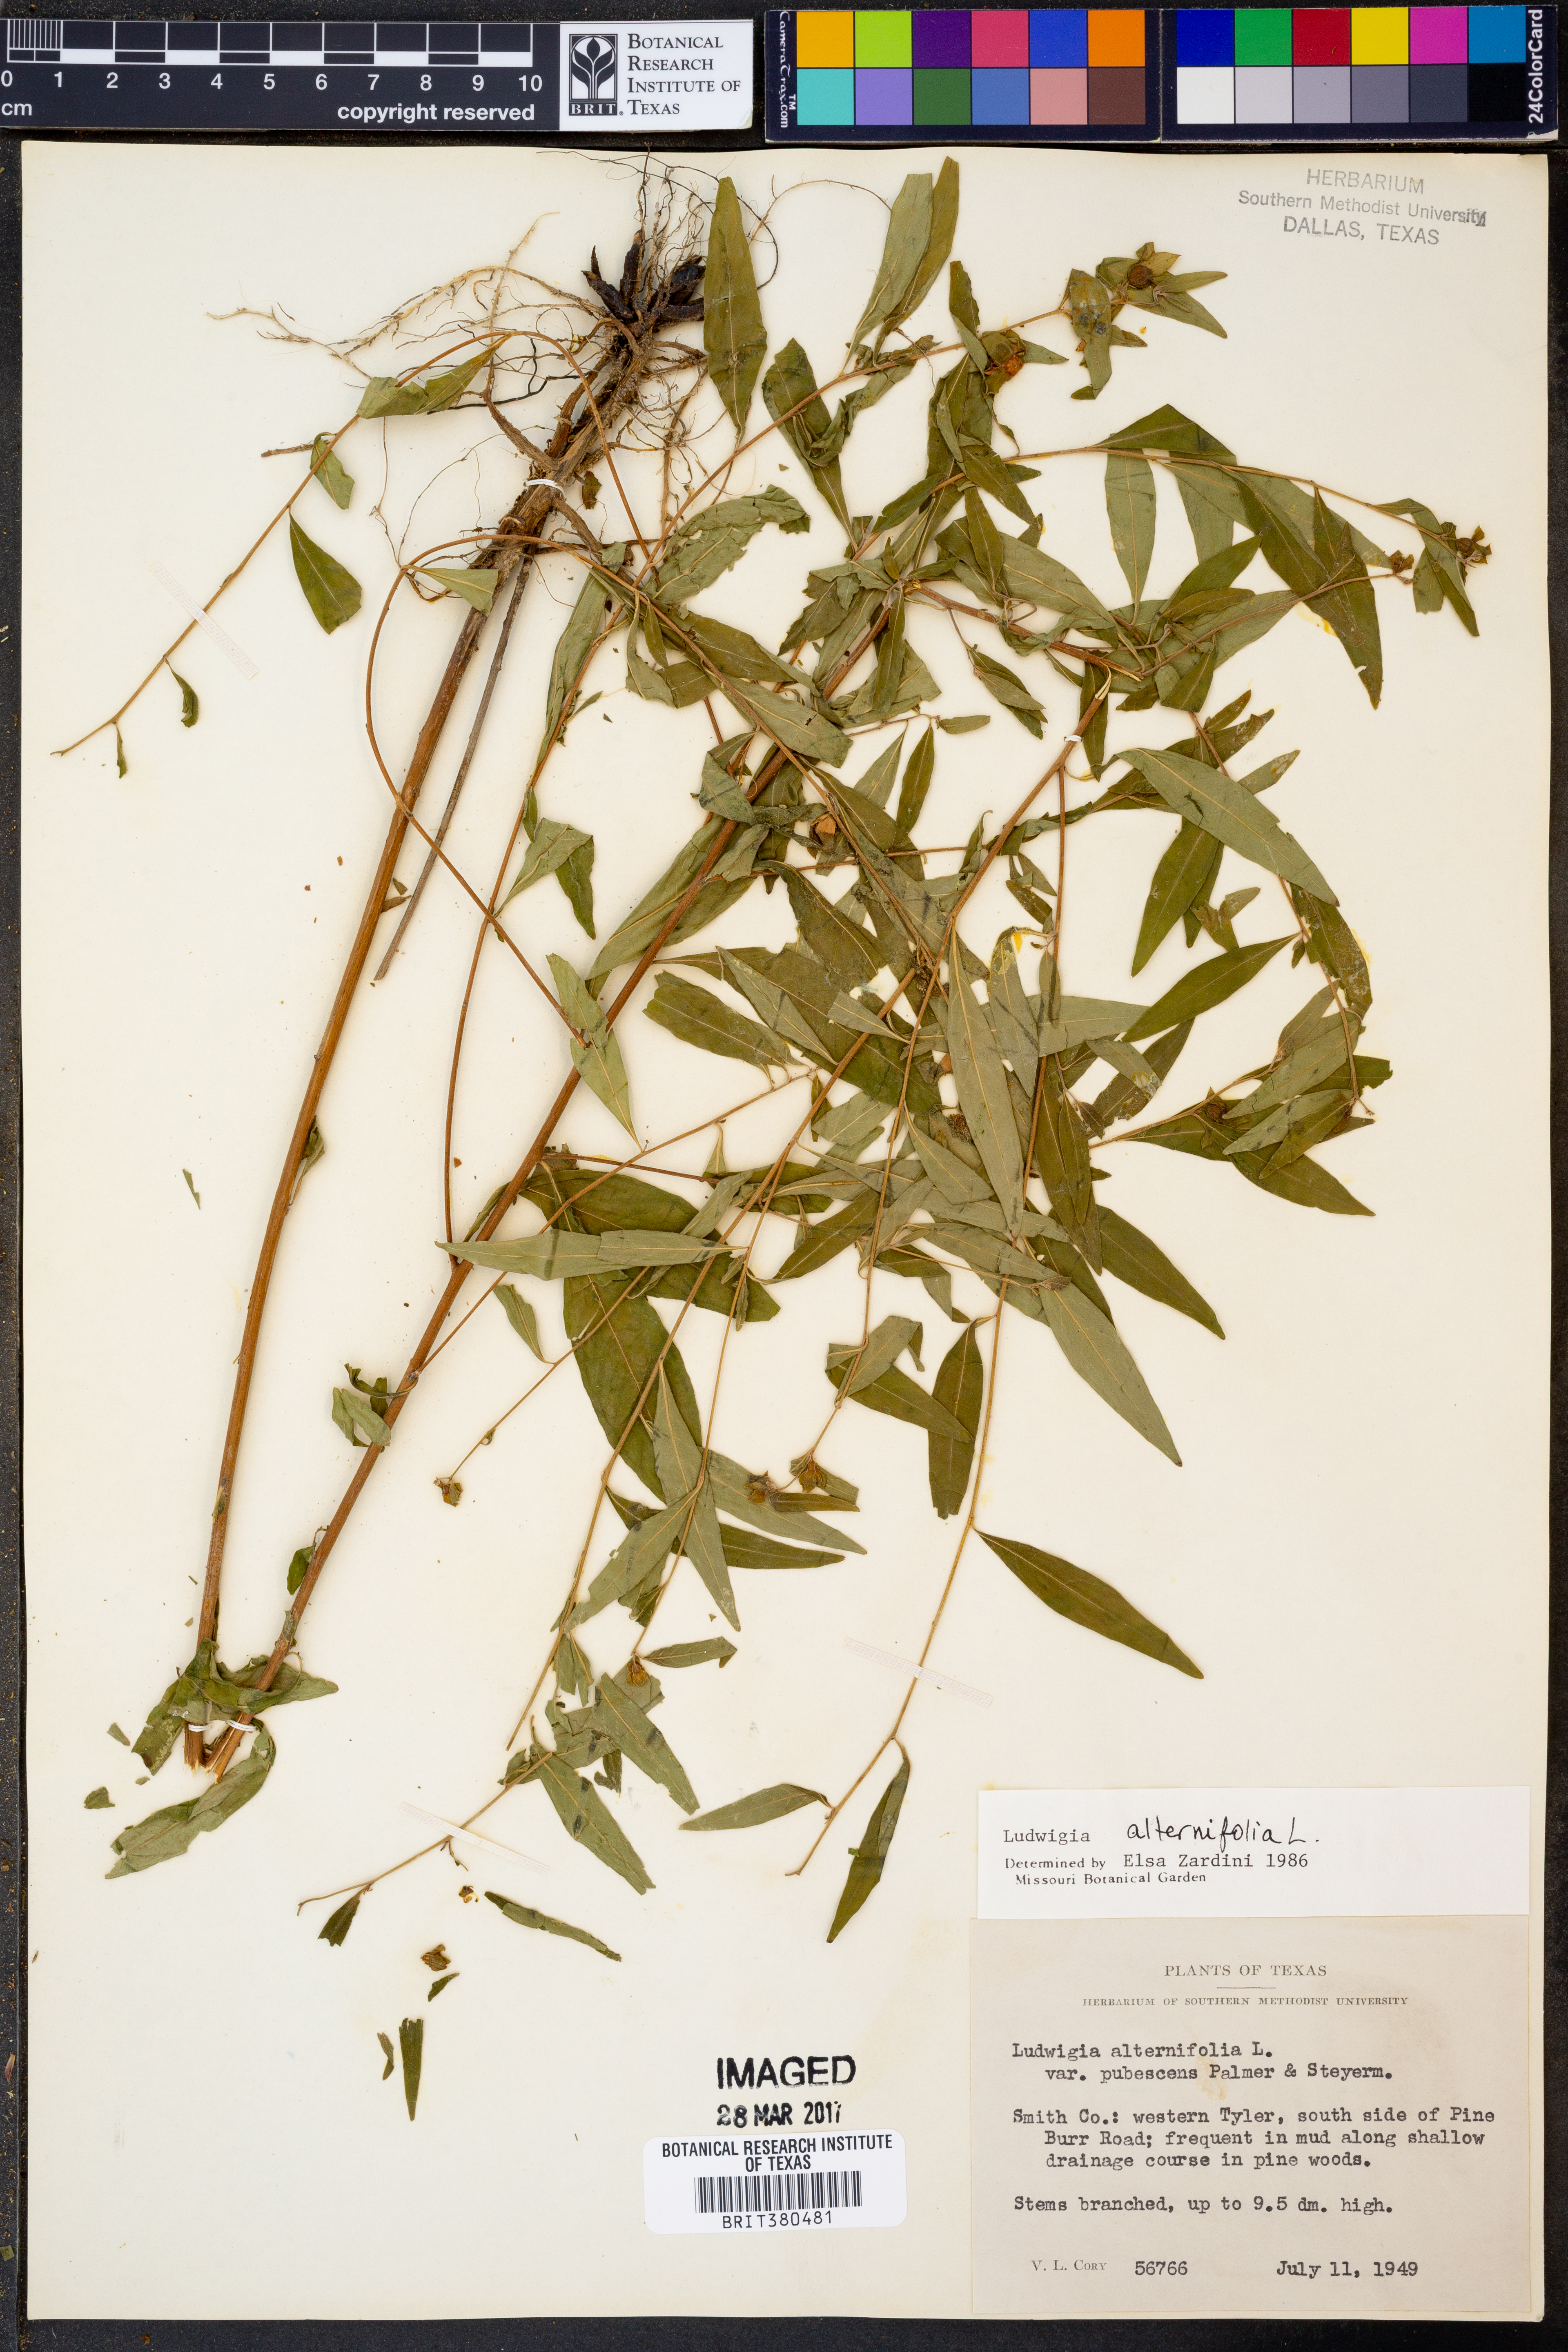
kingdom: Plantae
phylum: Tracheophyta
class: Magnoliopsida
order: Myrtales
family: Onagraceae
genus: Ludwigia
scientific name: Ludwigia alternifolia
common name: Rattlebox
